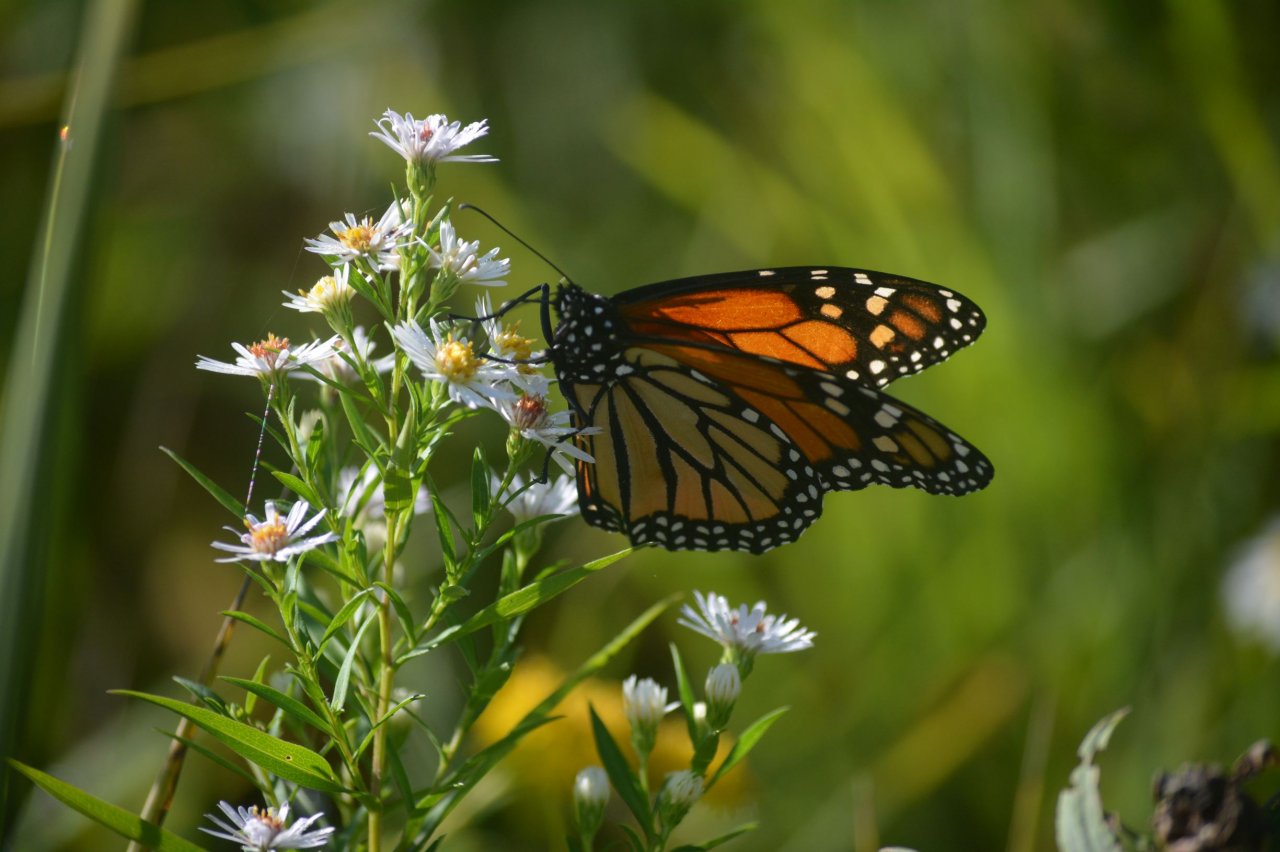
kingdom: Animalia
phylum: Arthropoda
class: Insecta
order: Lepidoptera
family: Nymphalidae
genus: Danaus
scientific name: Danaus plexippus
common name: Monarch
